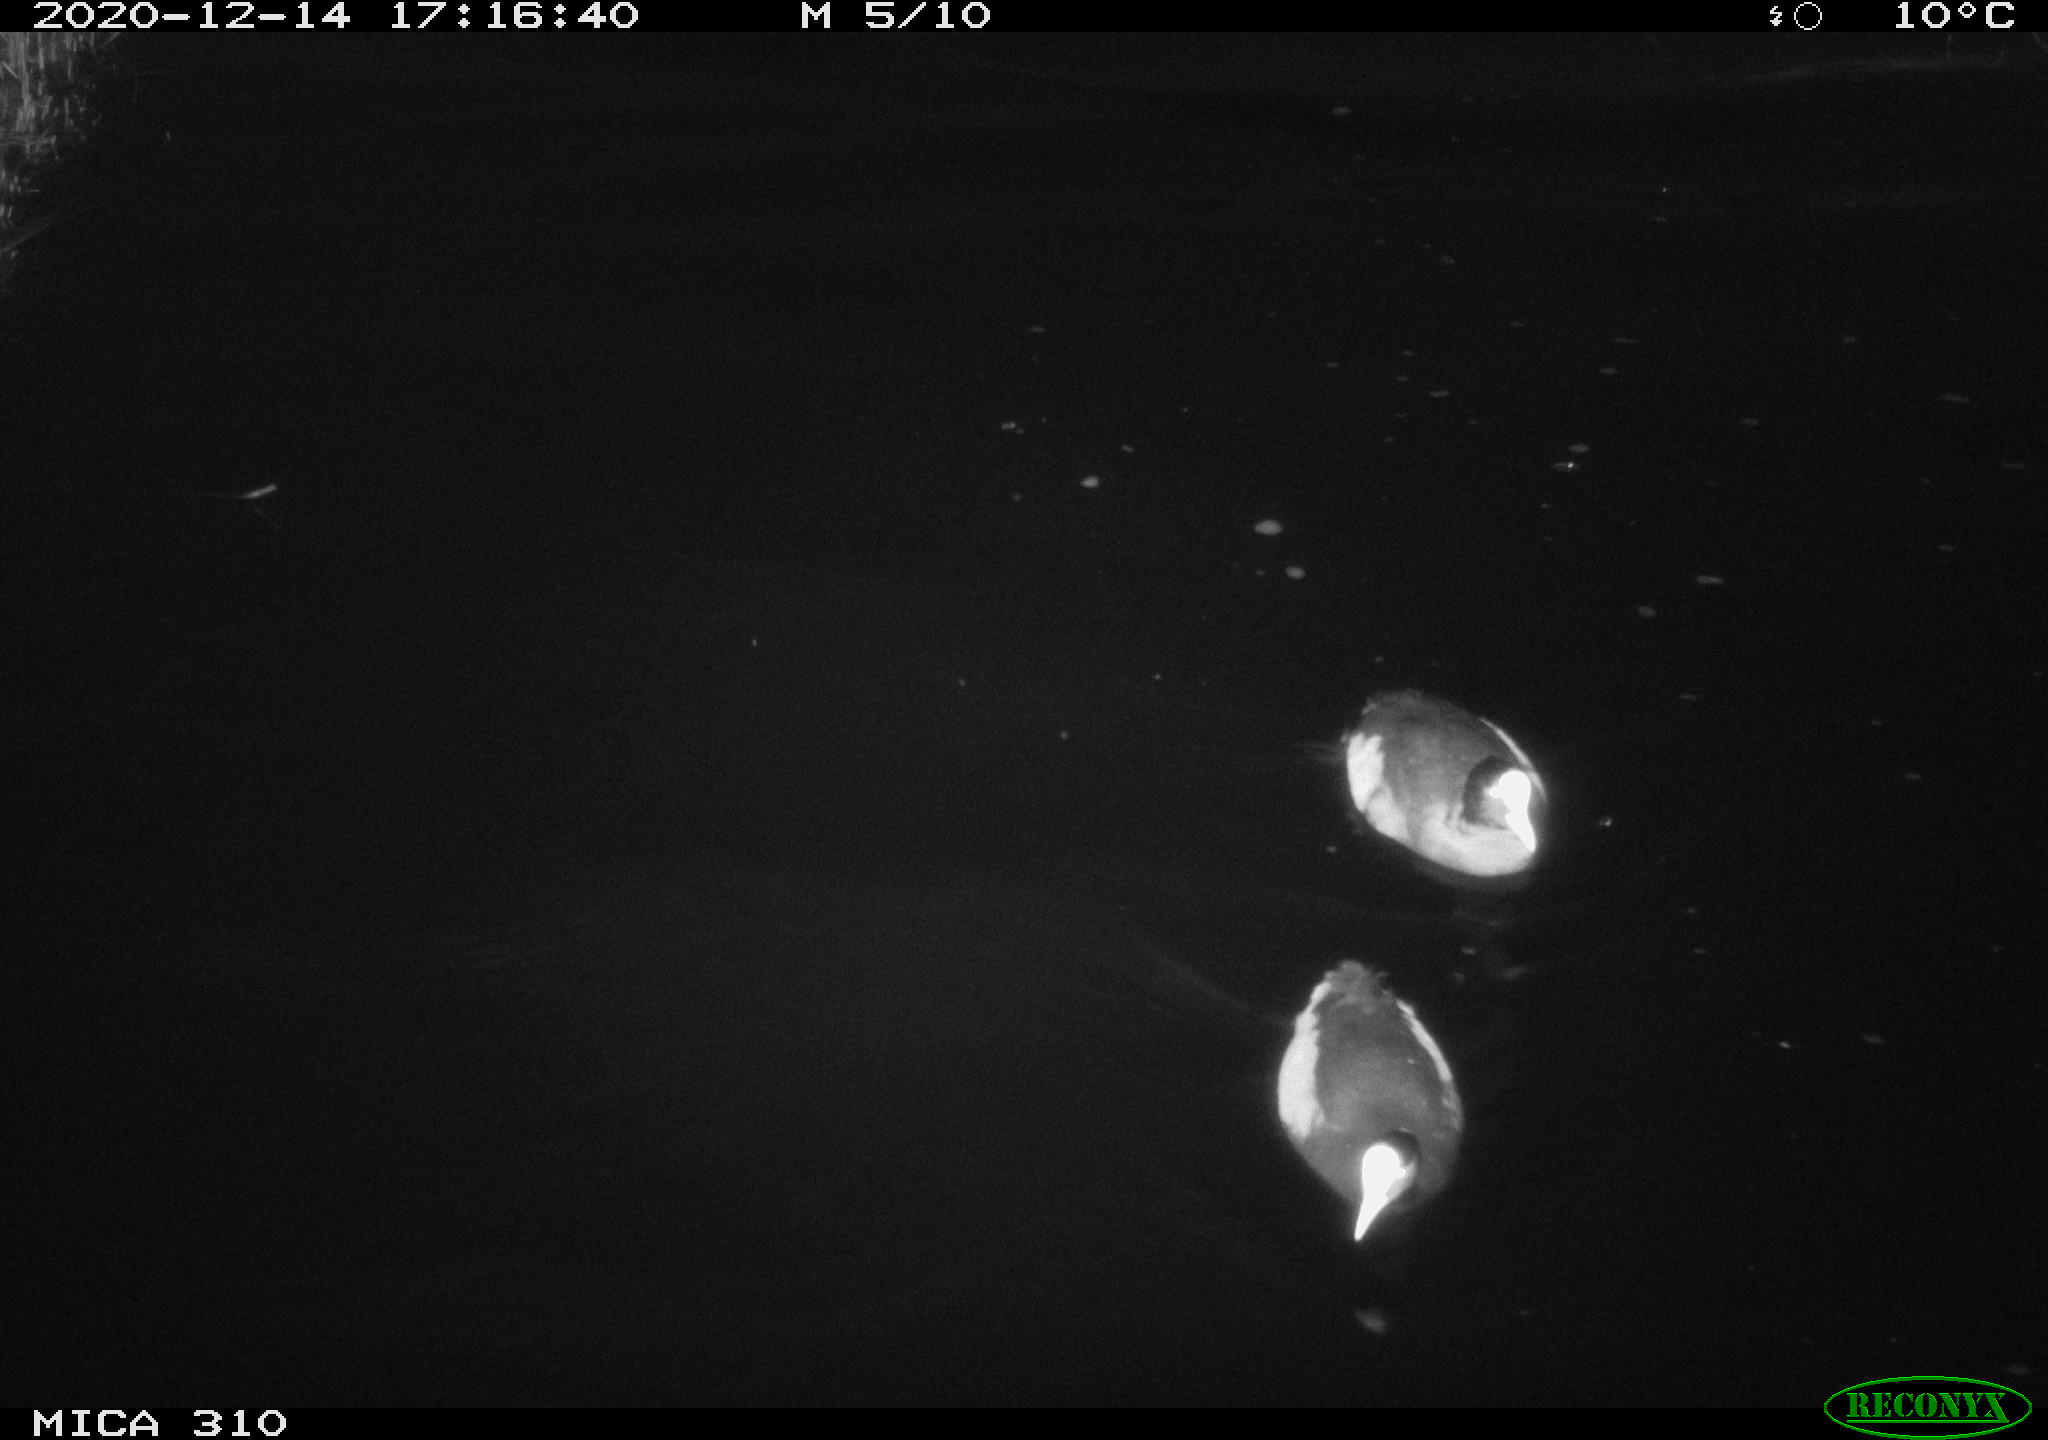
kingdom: Animalia
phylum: Chordata
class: Aves
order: Gruiformes
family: Rallidae
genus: Fulica
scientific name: Fulica atra
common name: Eurasian coot
